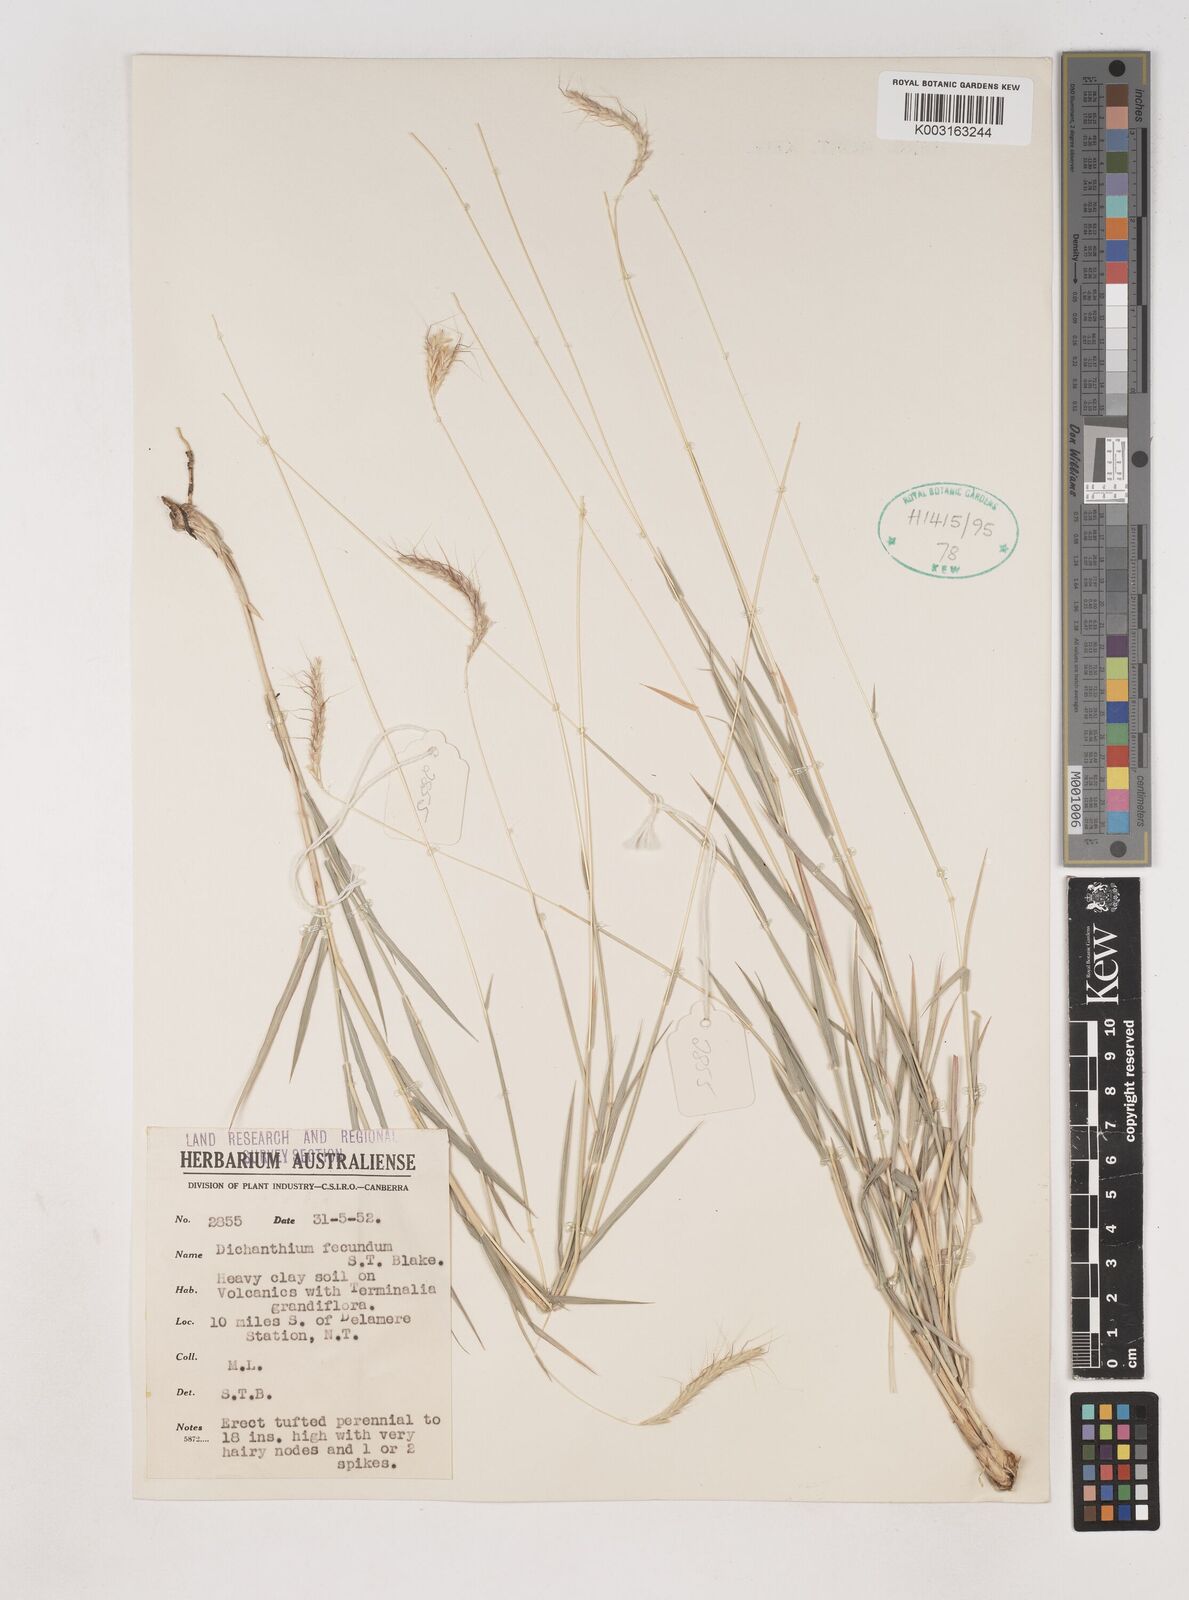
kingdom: Plantae
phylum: Tracheophyta
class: Liliopsida
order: Poales
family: Poaceae
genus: Dichanthium
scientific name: Dichanthium fecundum
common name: Bundle-bundle
